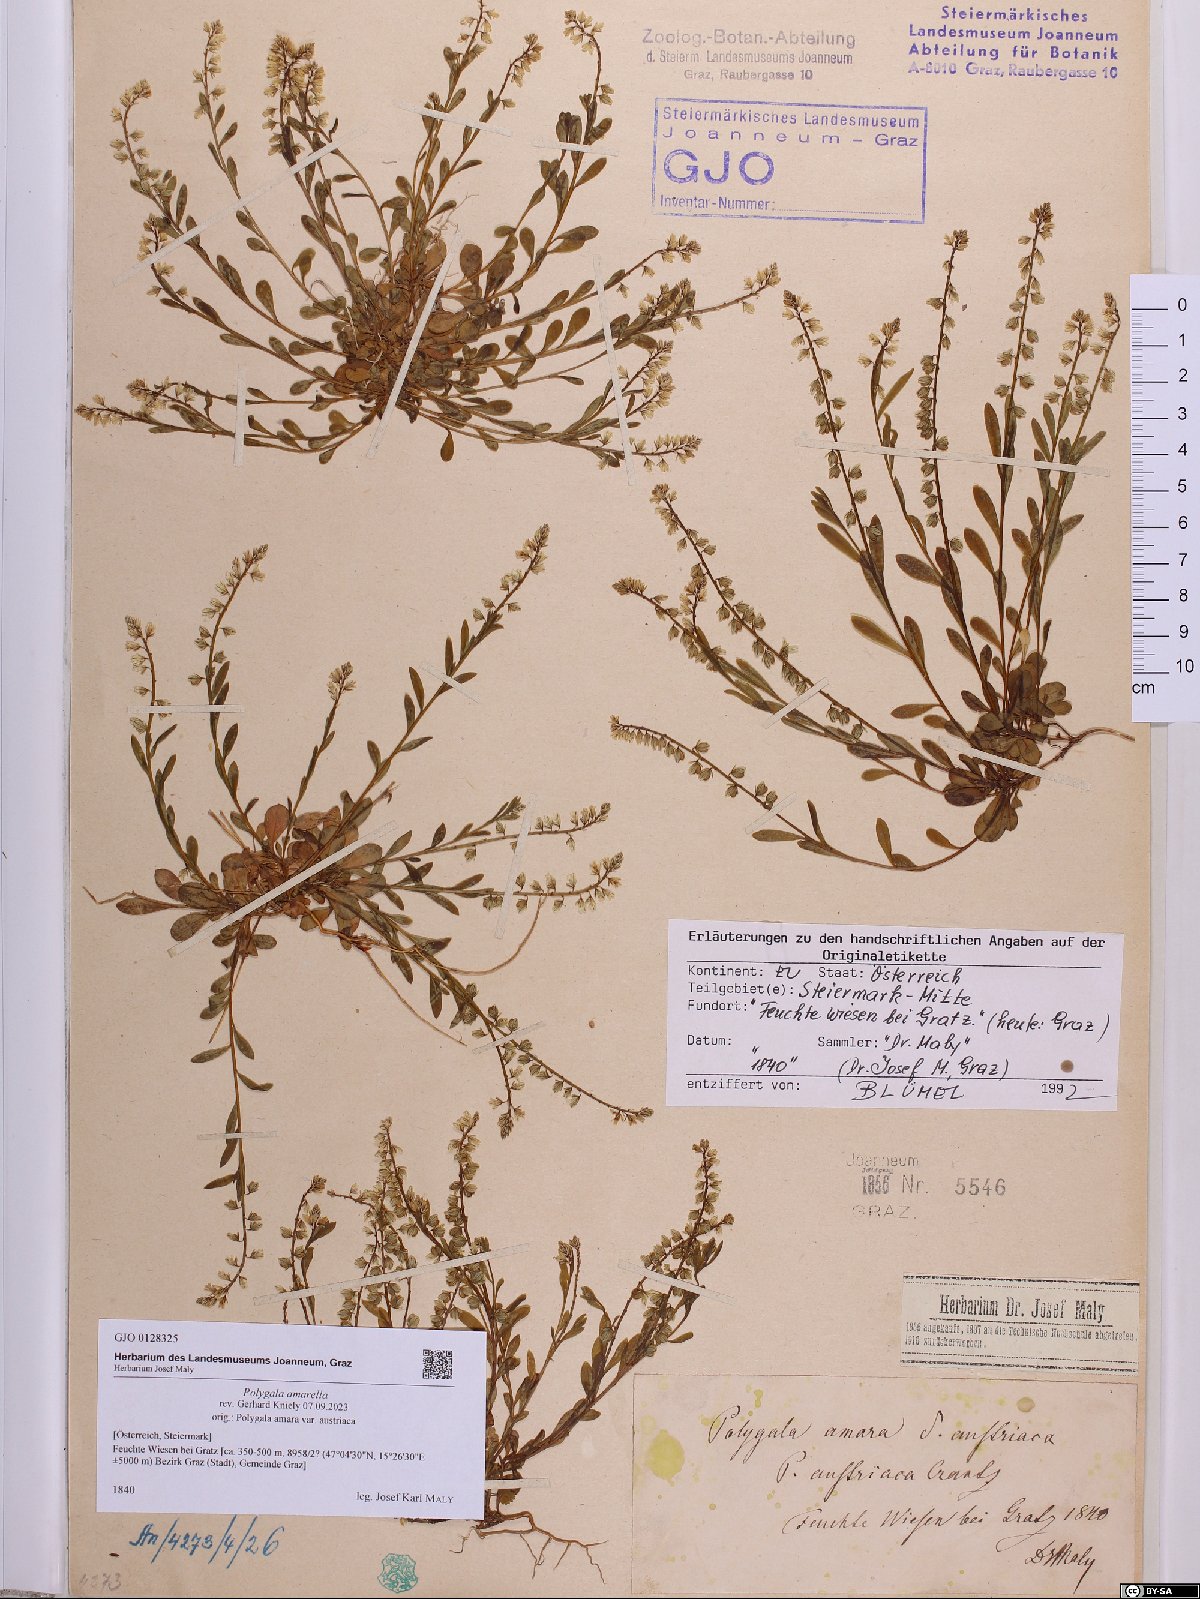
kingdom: Plantae
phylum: Tracheophyta
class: Magnoliopsida
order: Fabales
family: Polygalaceae
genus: Polygala
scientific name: Polygala amarella
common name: Dwarf milkwort
